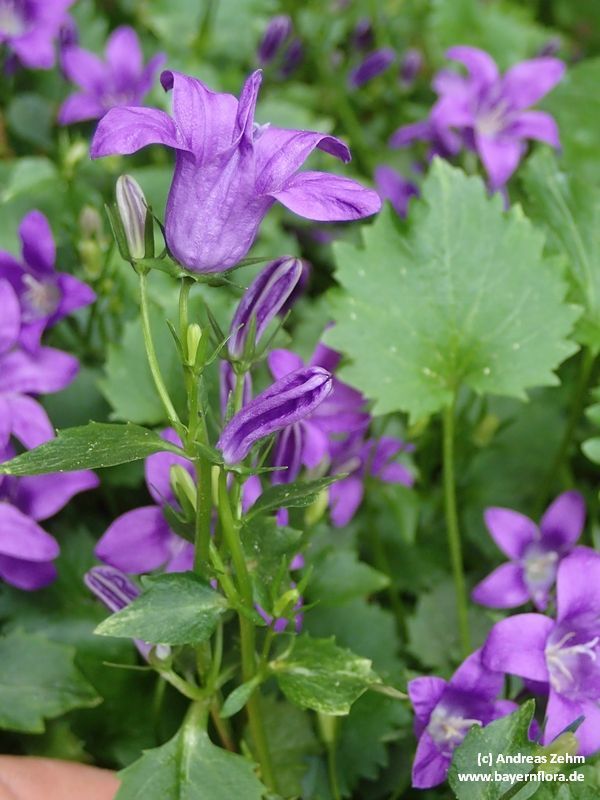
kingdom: Plantae
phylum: Tracheophyta
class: Magnoliopsida
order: Asterales
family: Campanulaceae
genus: Campanula
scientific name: Campanula portenschlagiana
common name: Adria bellflower
